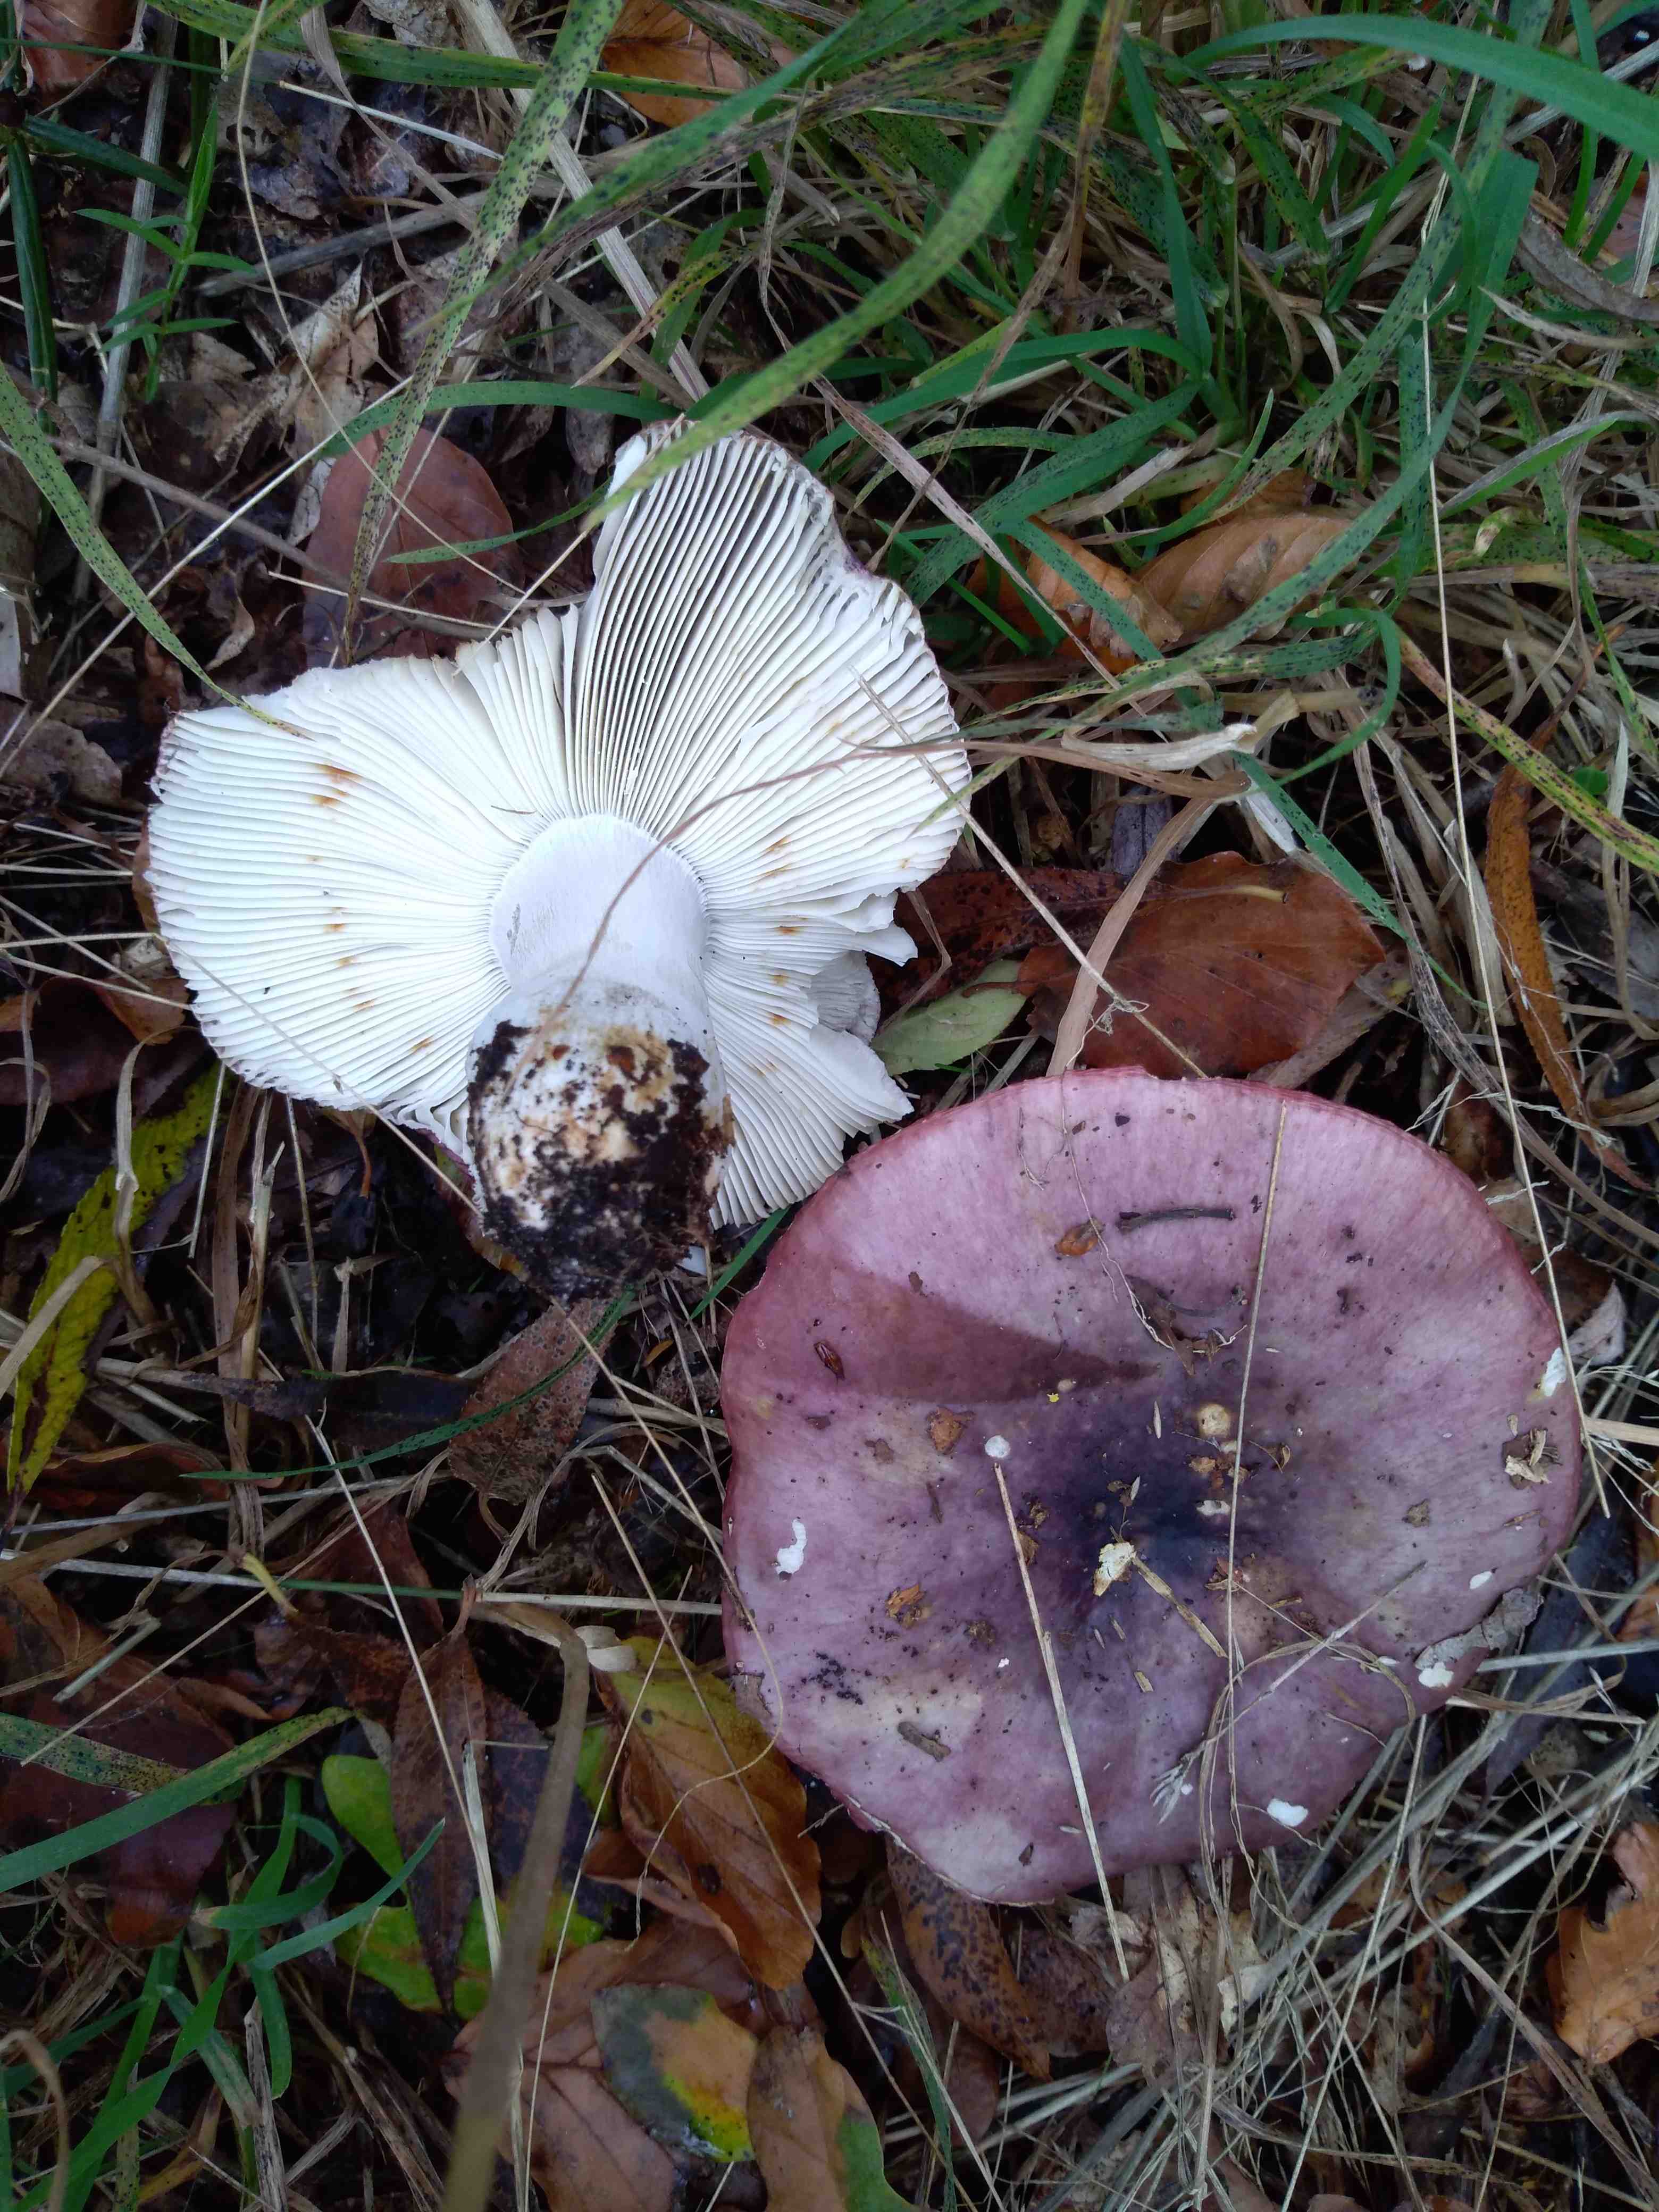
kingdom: Fungi
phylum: Basidiomycota
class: Agaricomycetes
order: Russulales
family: Russulaceae
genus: Russula
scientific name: Russula atropurpurea
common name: purpurbroget skørhat
